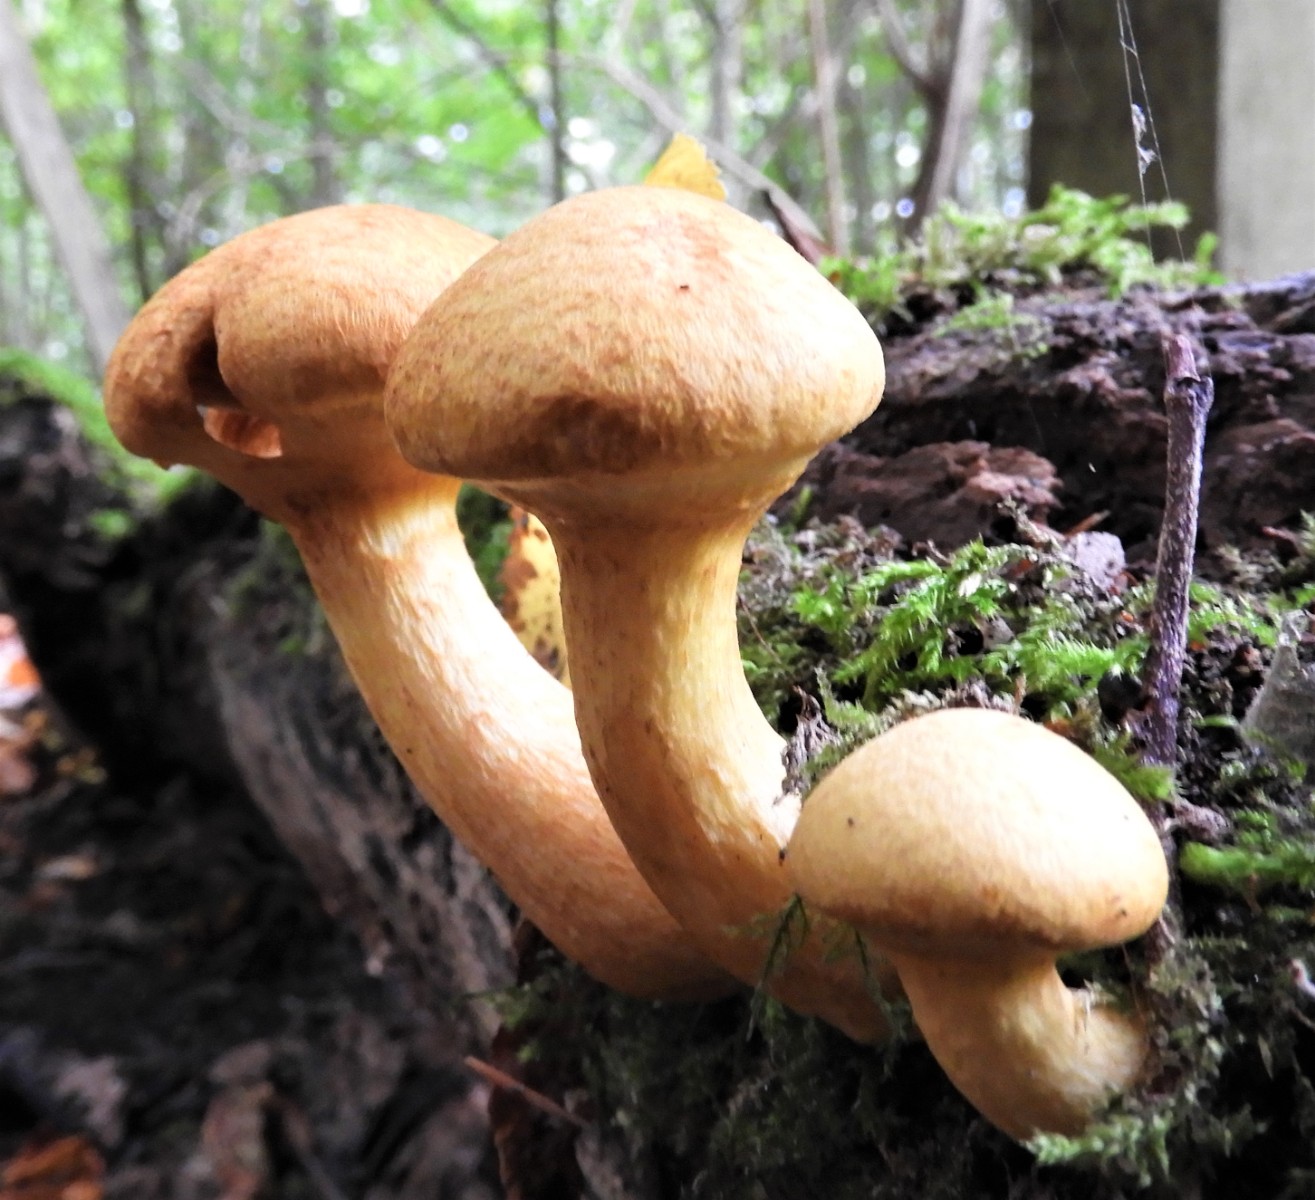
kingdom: Fungi
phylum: Basidiomycota
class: Agaricomycetes
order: Agaricales
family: Hymenogastraceae
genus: Gymnopilus
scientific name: Gymnopilus spectabilis
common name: fibret flammehat
